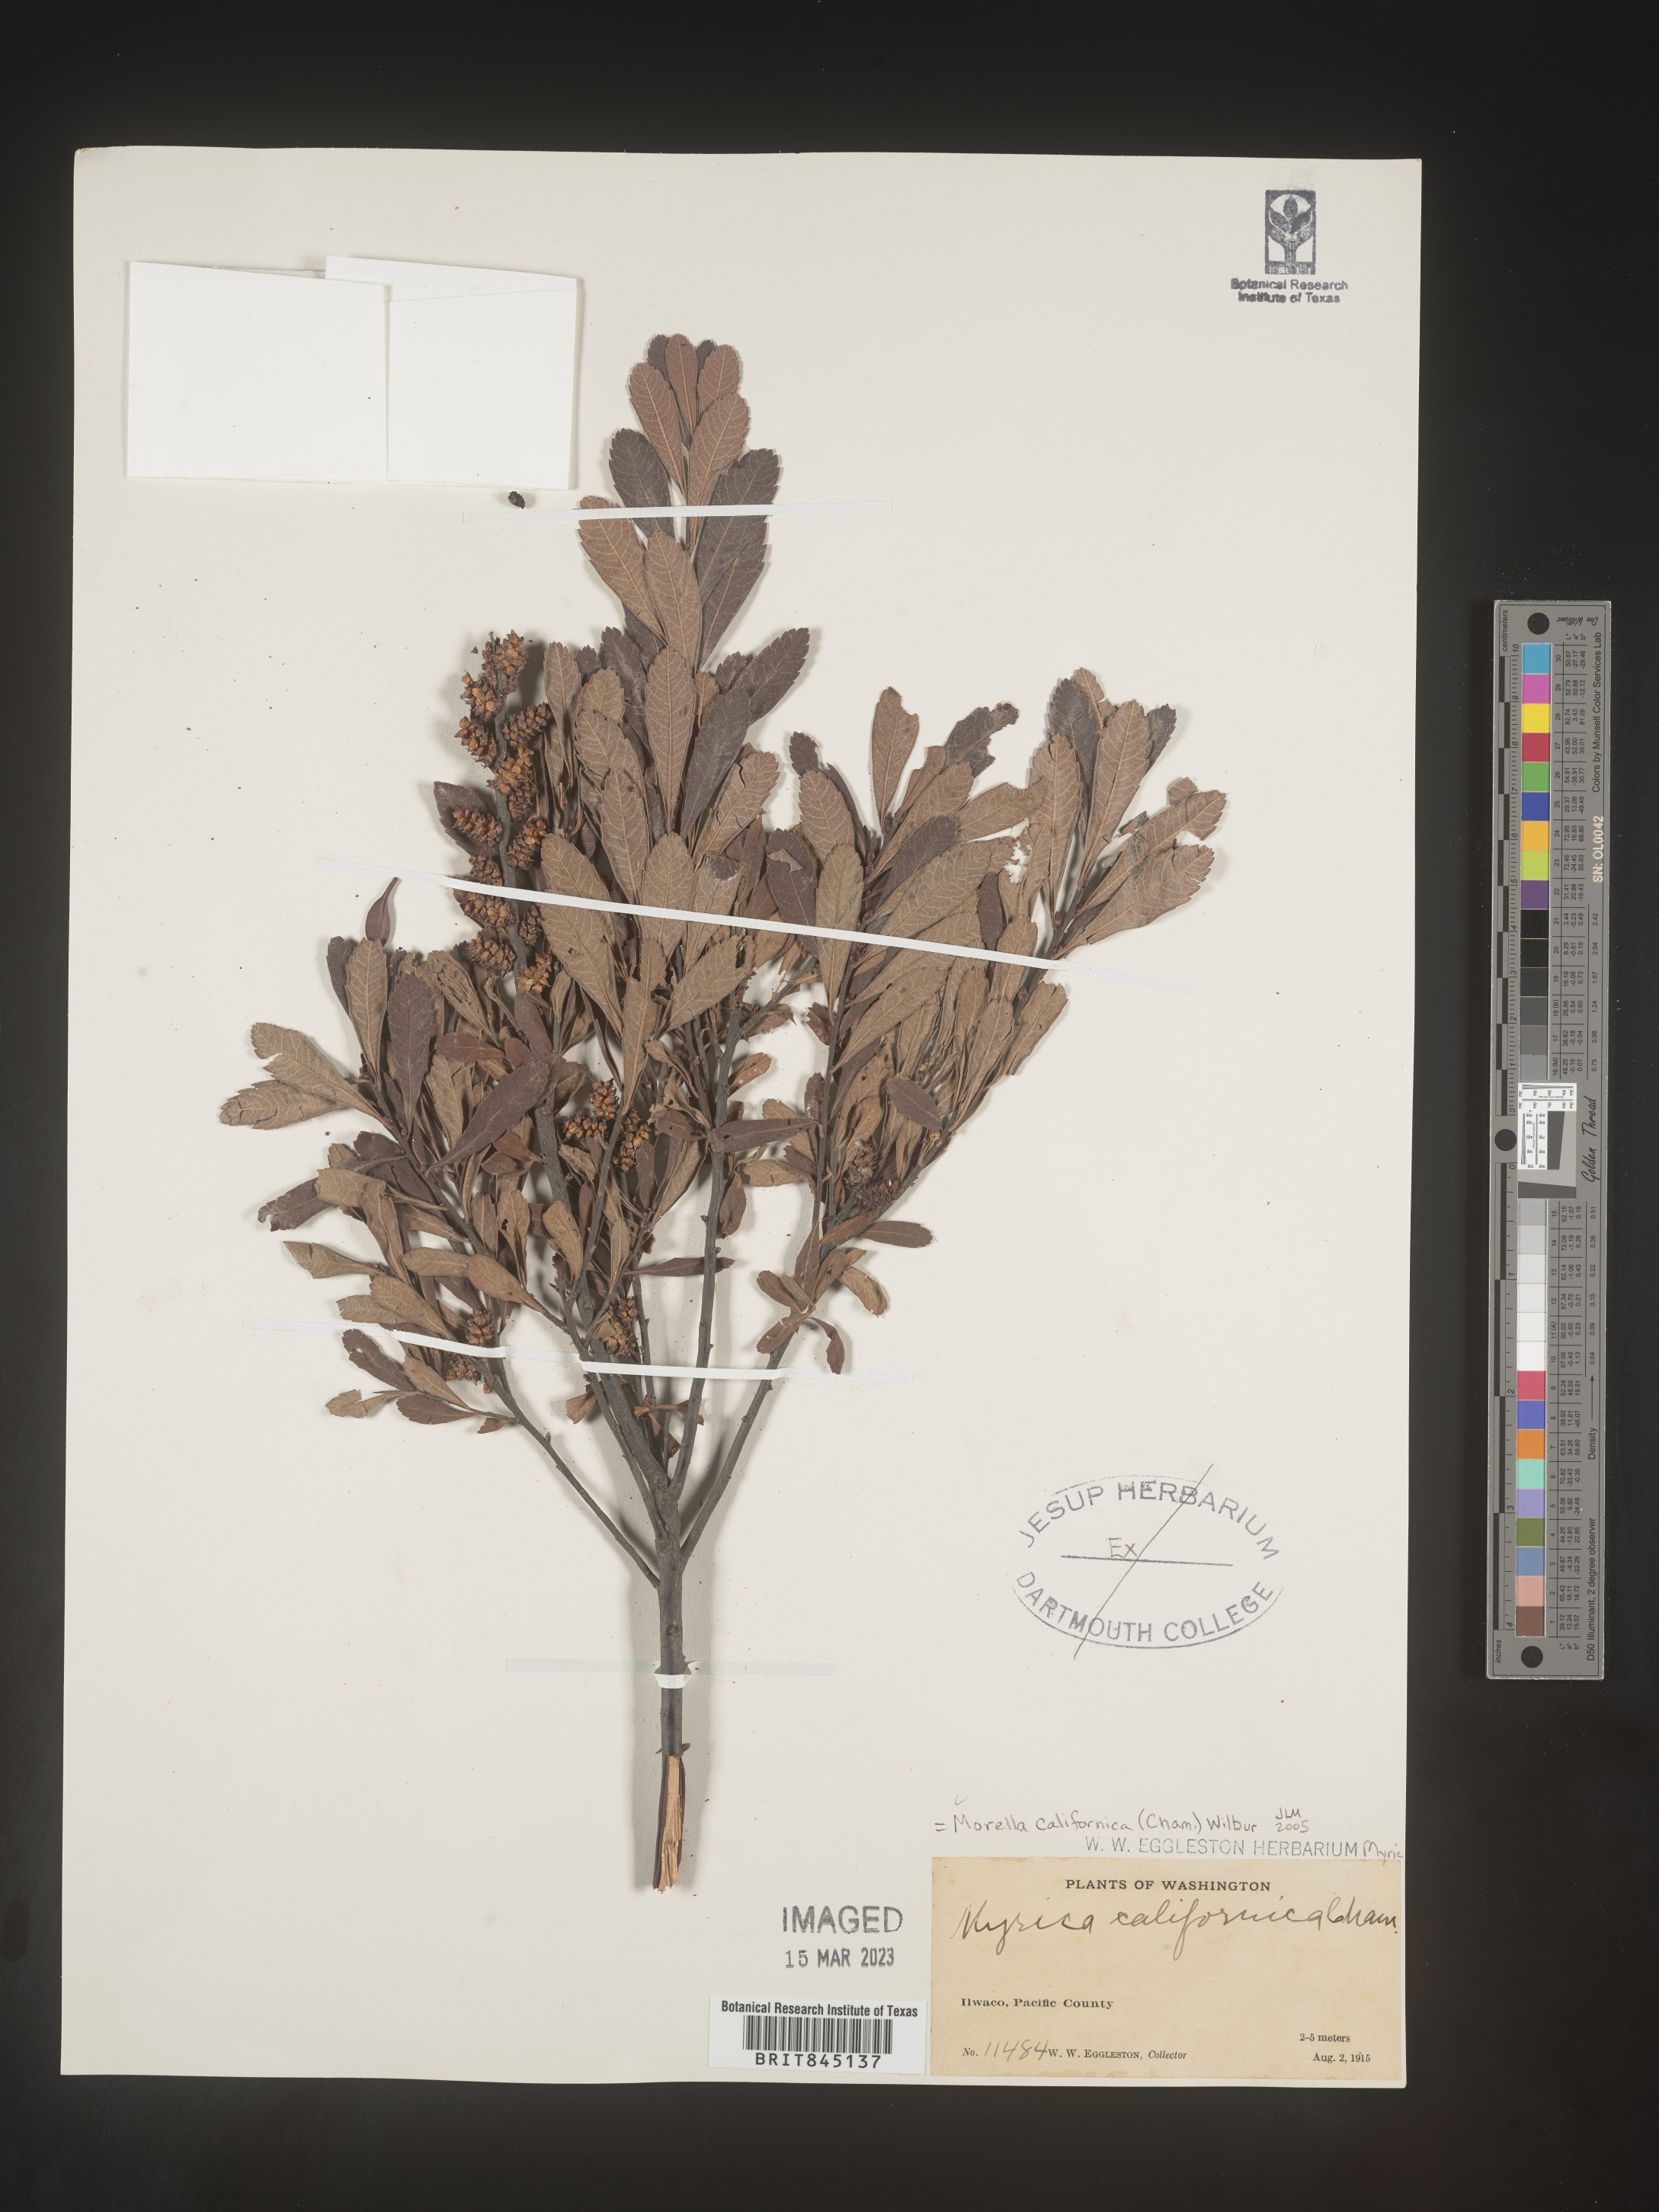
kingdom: Plantae
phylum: Tracheophyta
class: Magnoliopsida
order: Fagales
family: Myricaceae
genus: Morella
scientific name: Morella californica
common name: California wax-myrtle
